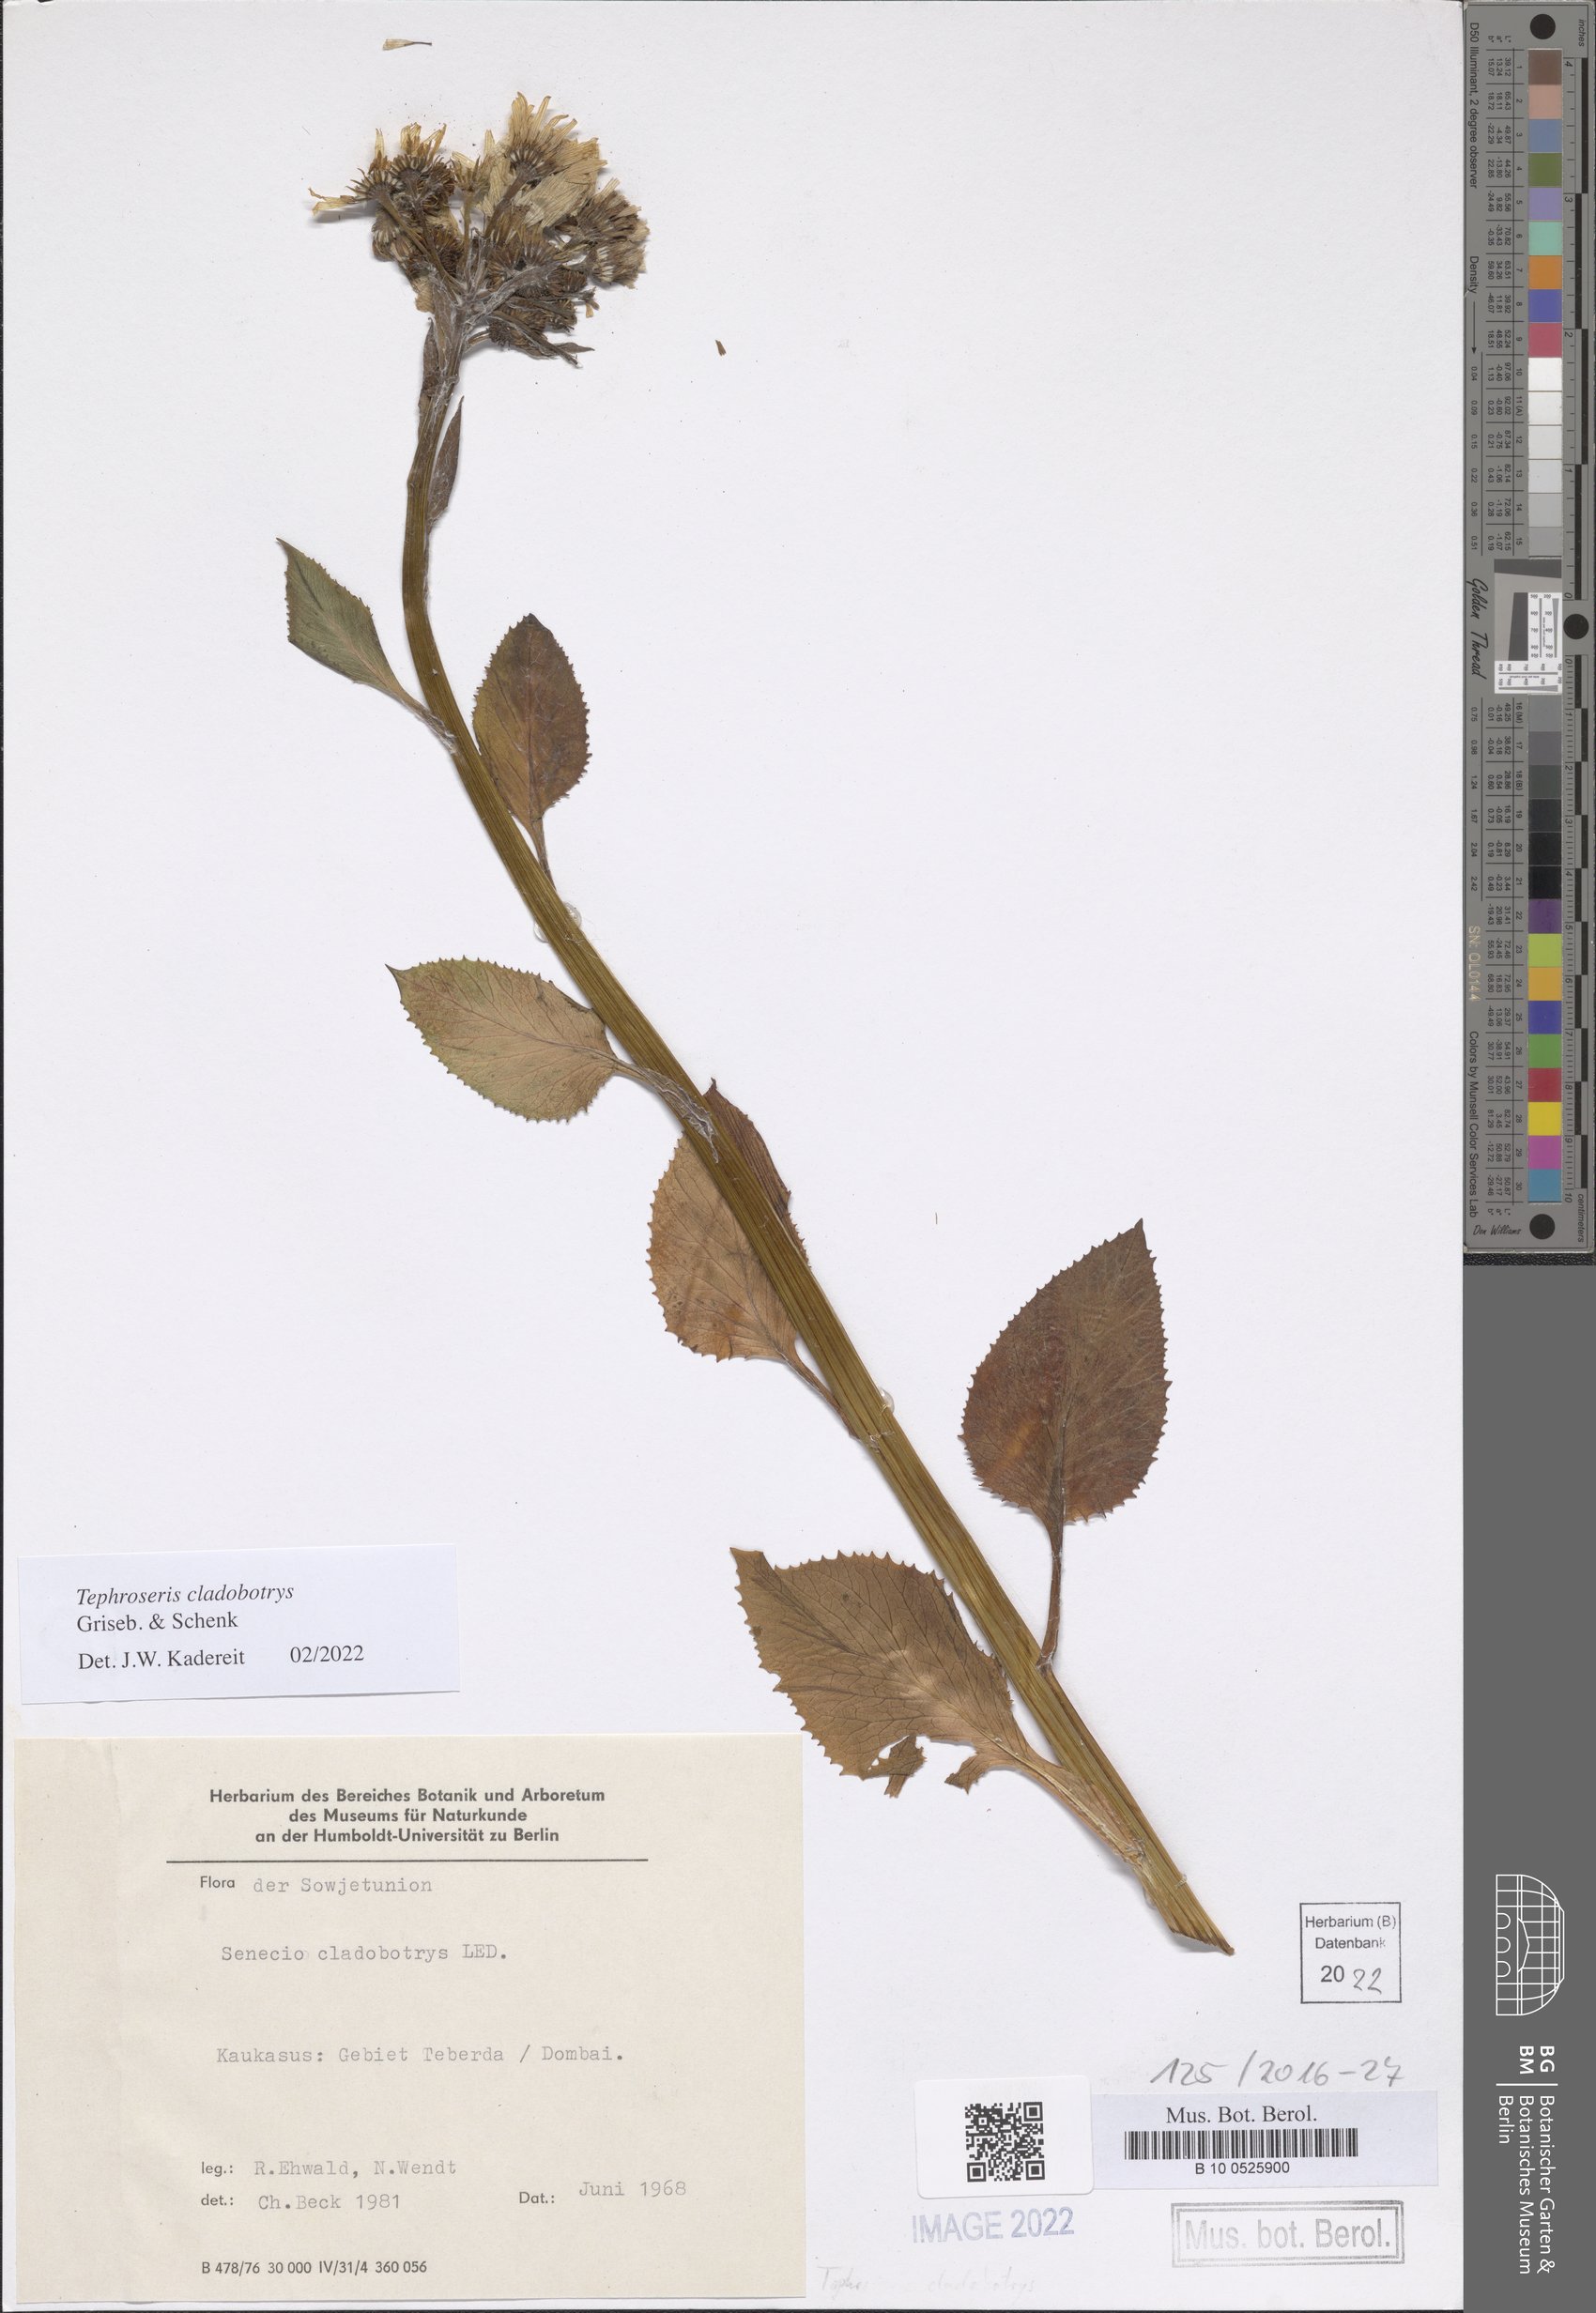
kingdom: Plantae
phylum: Tracheophyta
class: Magnoliopsida
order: Asterales
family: Asteraceae
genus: Tephroseris
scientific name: Tephroseris cladobotrys
